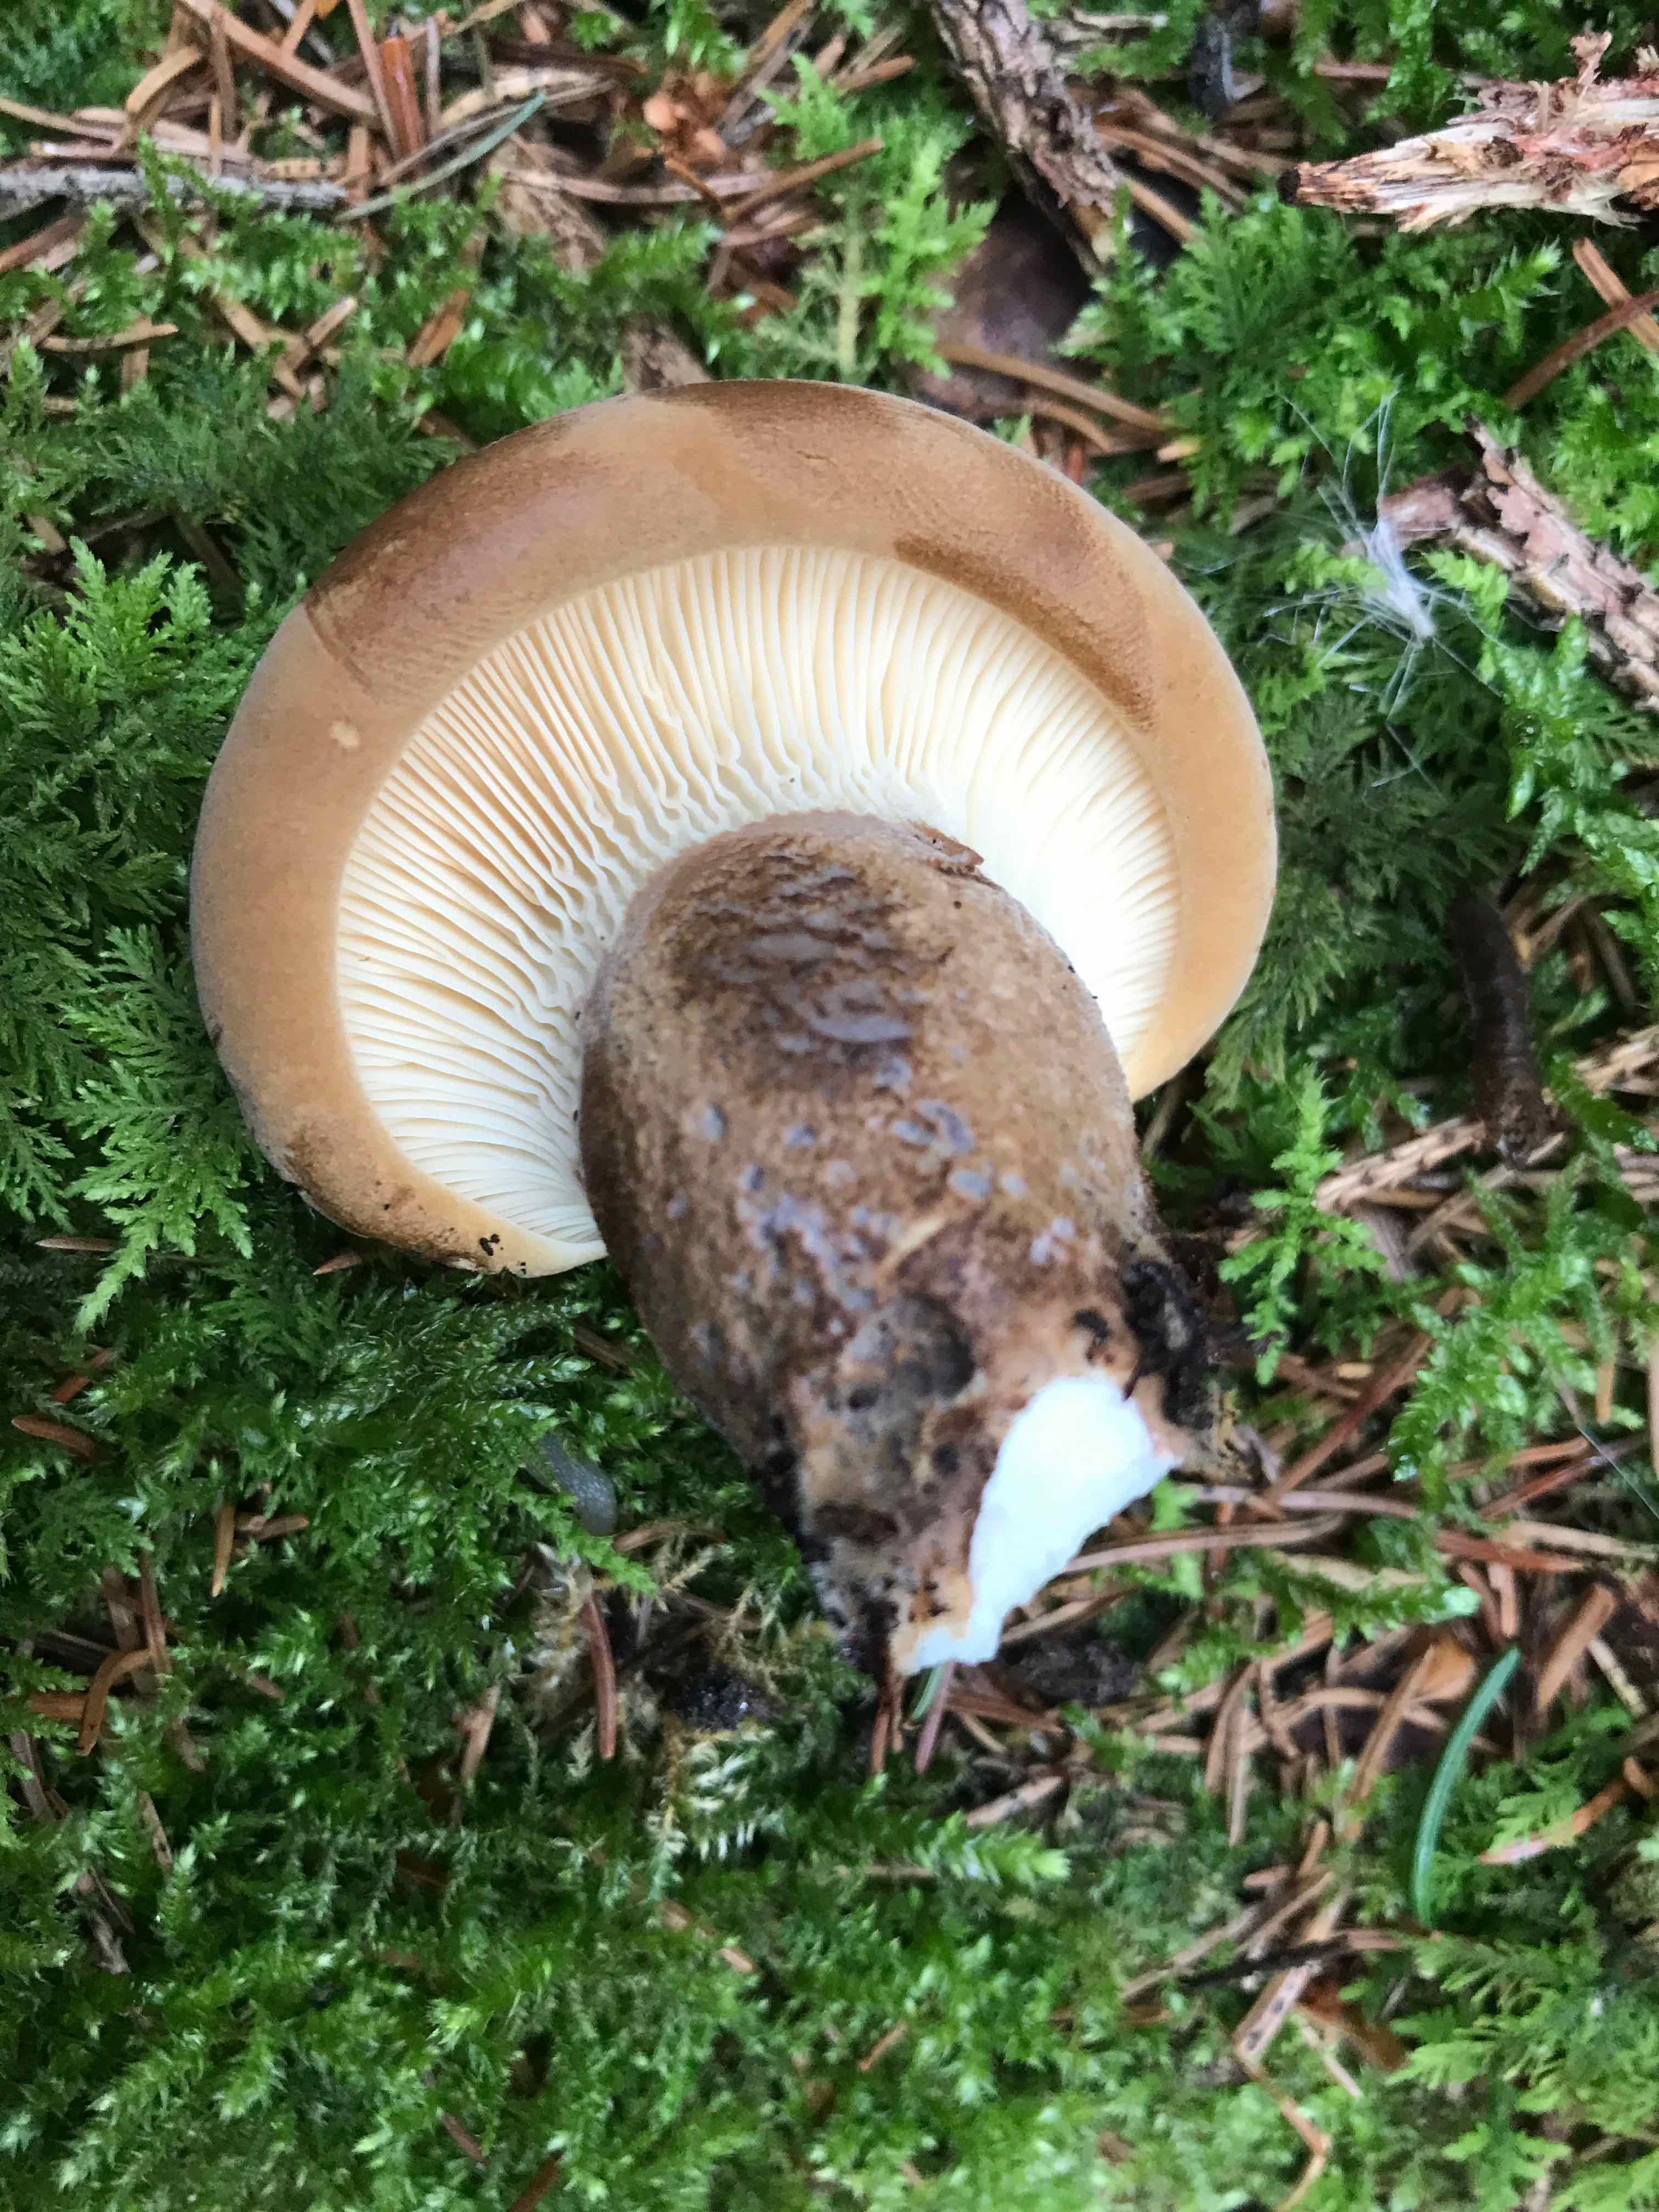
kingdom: Fungi
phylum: Basidiomycota
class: Agaricomycetes
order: Boletales
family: Tapinellaceae
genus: Tapinella
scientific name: Tapinella atrotomentosa
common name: sortfiltet viftesvamp
